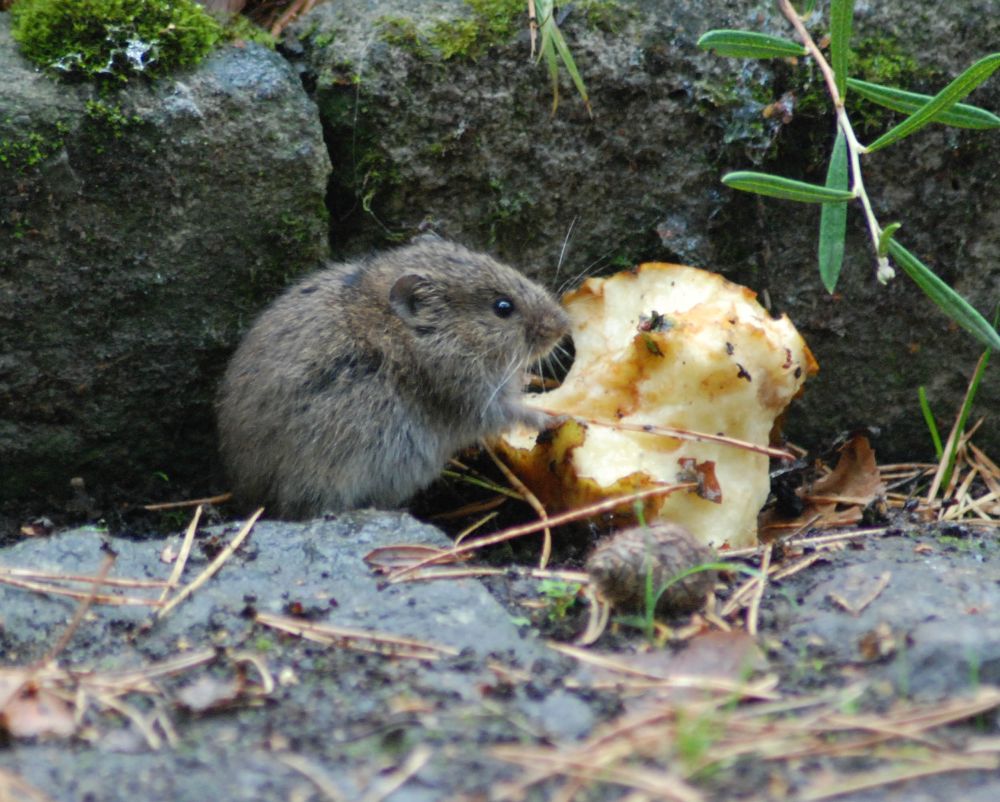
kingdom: Animalia
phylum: Chordata
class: Mammalia
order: Rodentia
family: Cricetidae
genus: Microtus
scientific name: Microtus arvalis
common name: Common vole
